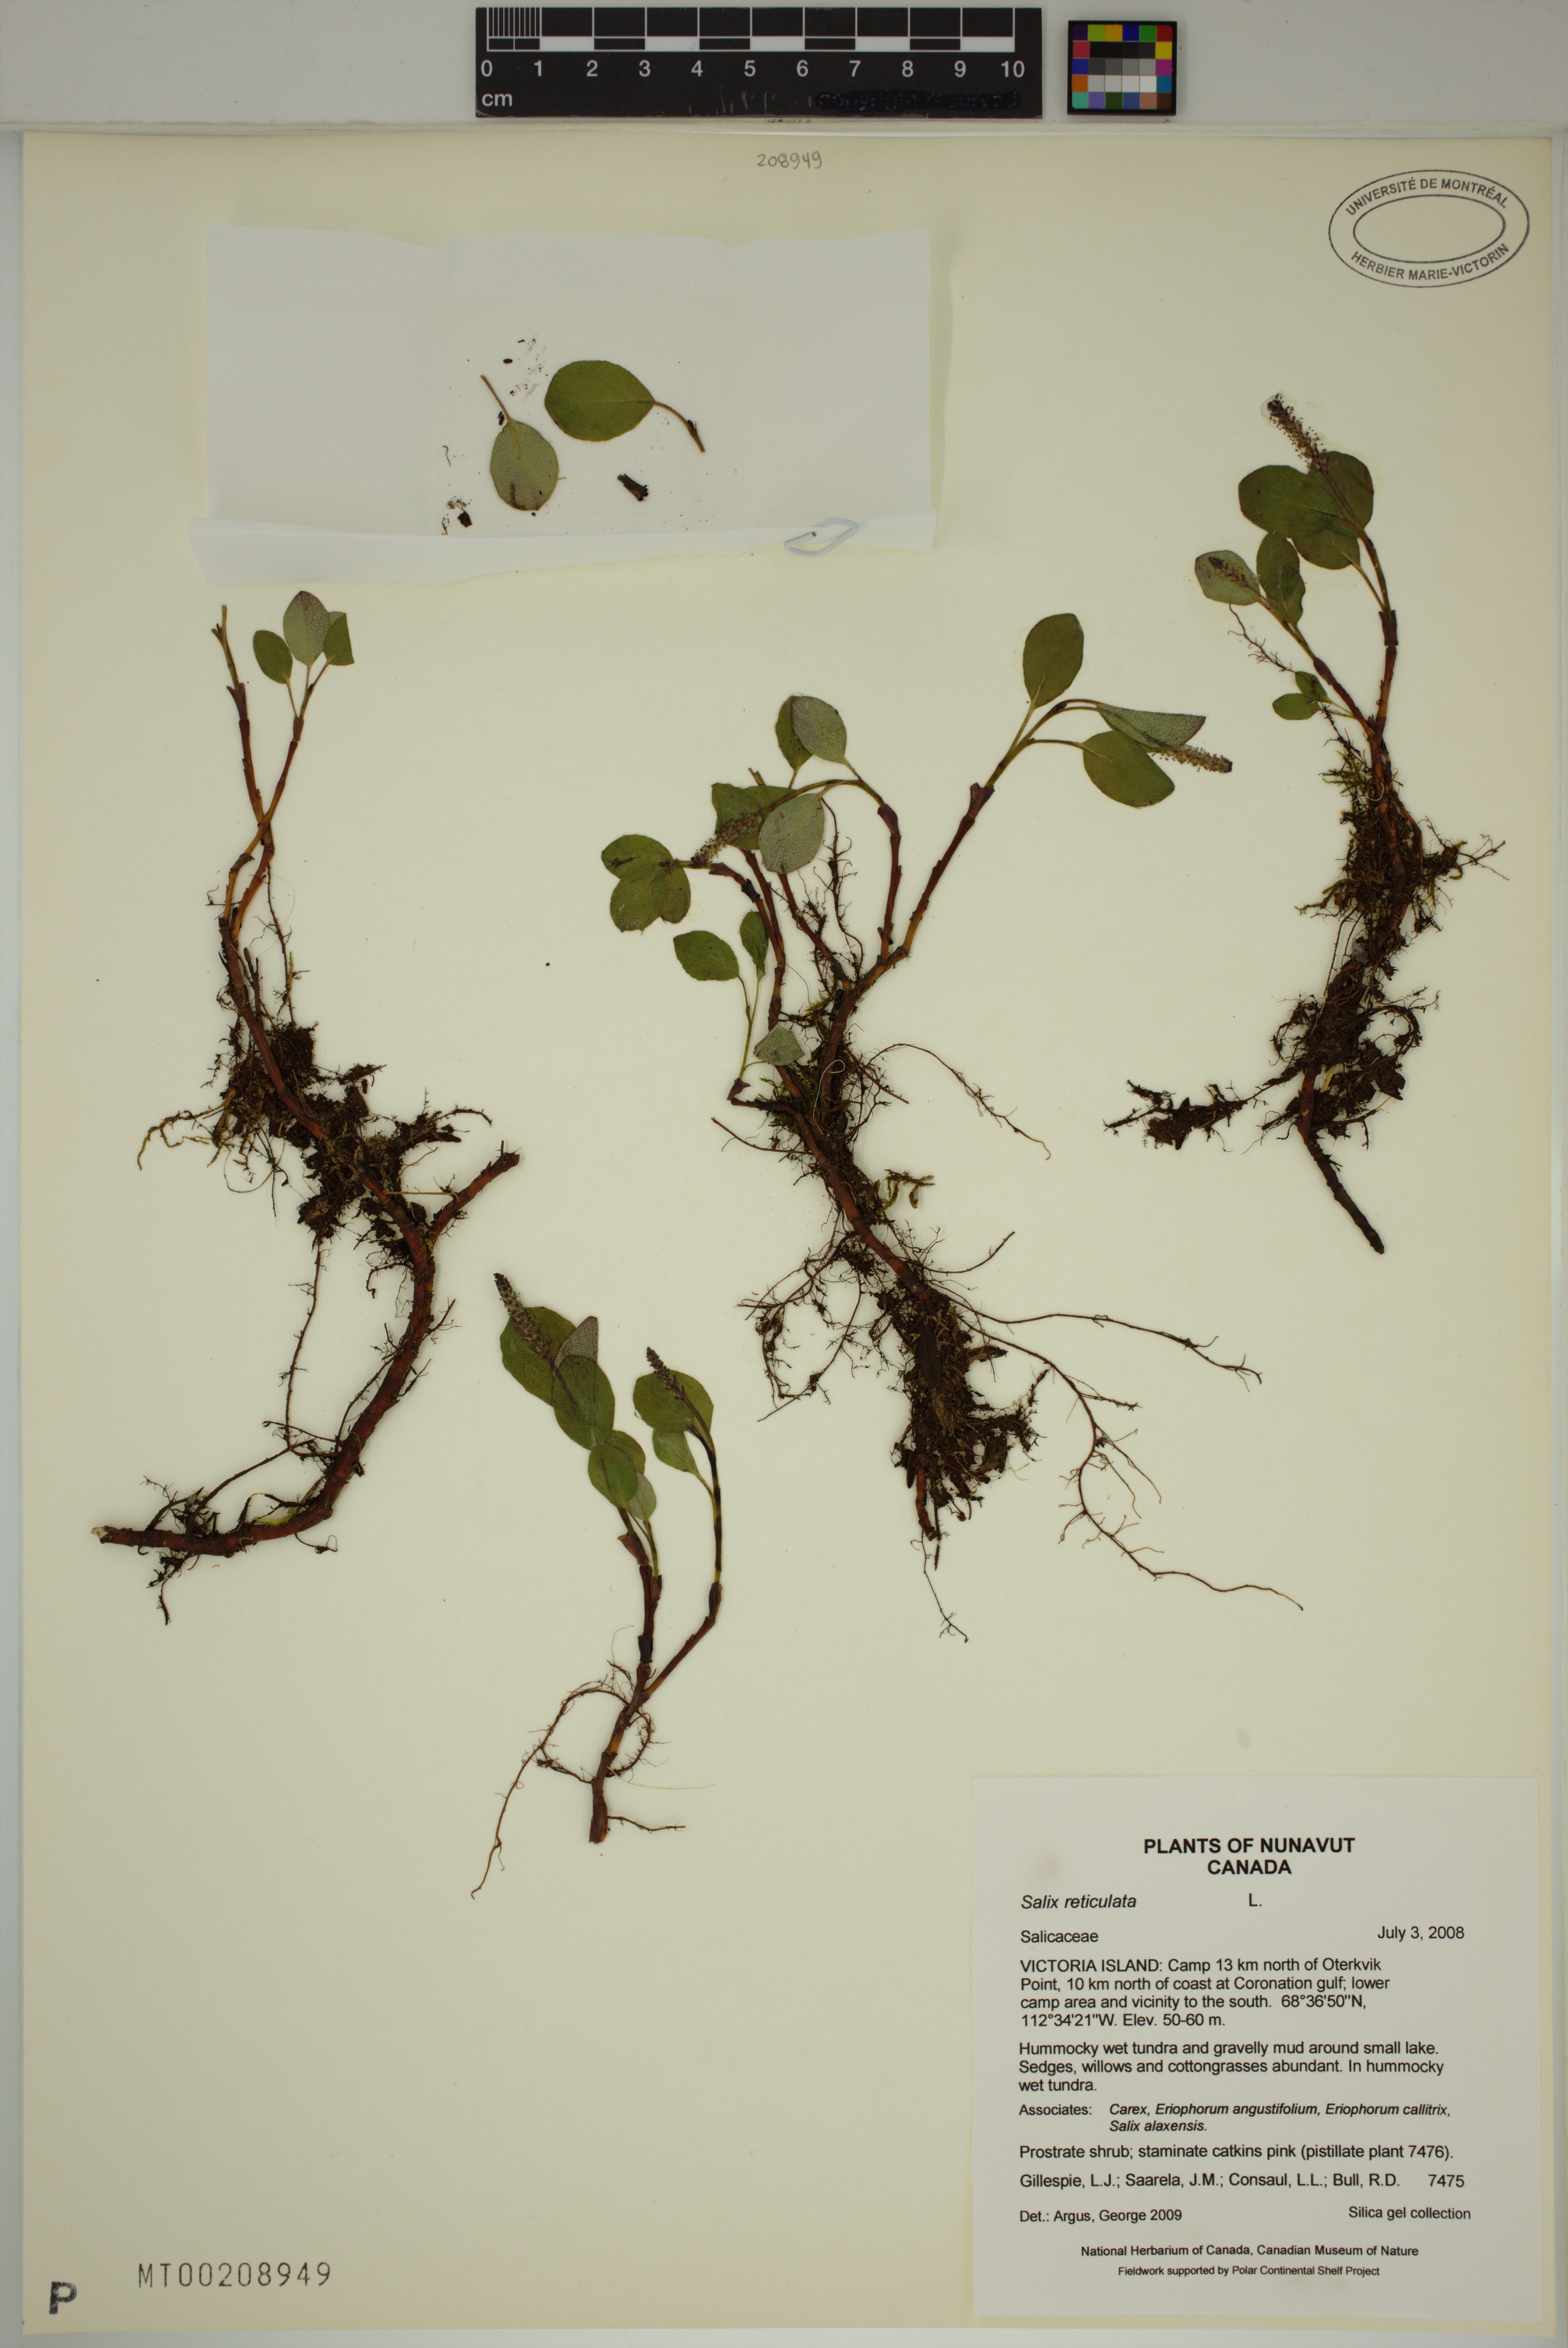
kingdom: Plantae
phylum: Tracheophyta
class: Magnoliopsida
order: Malpighiales
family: Salicaceae
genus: Salix
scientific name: Salix reticulata
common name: Net-leaved willow
